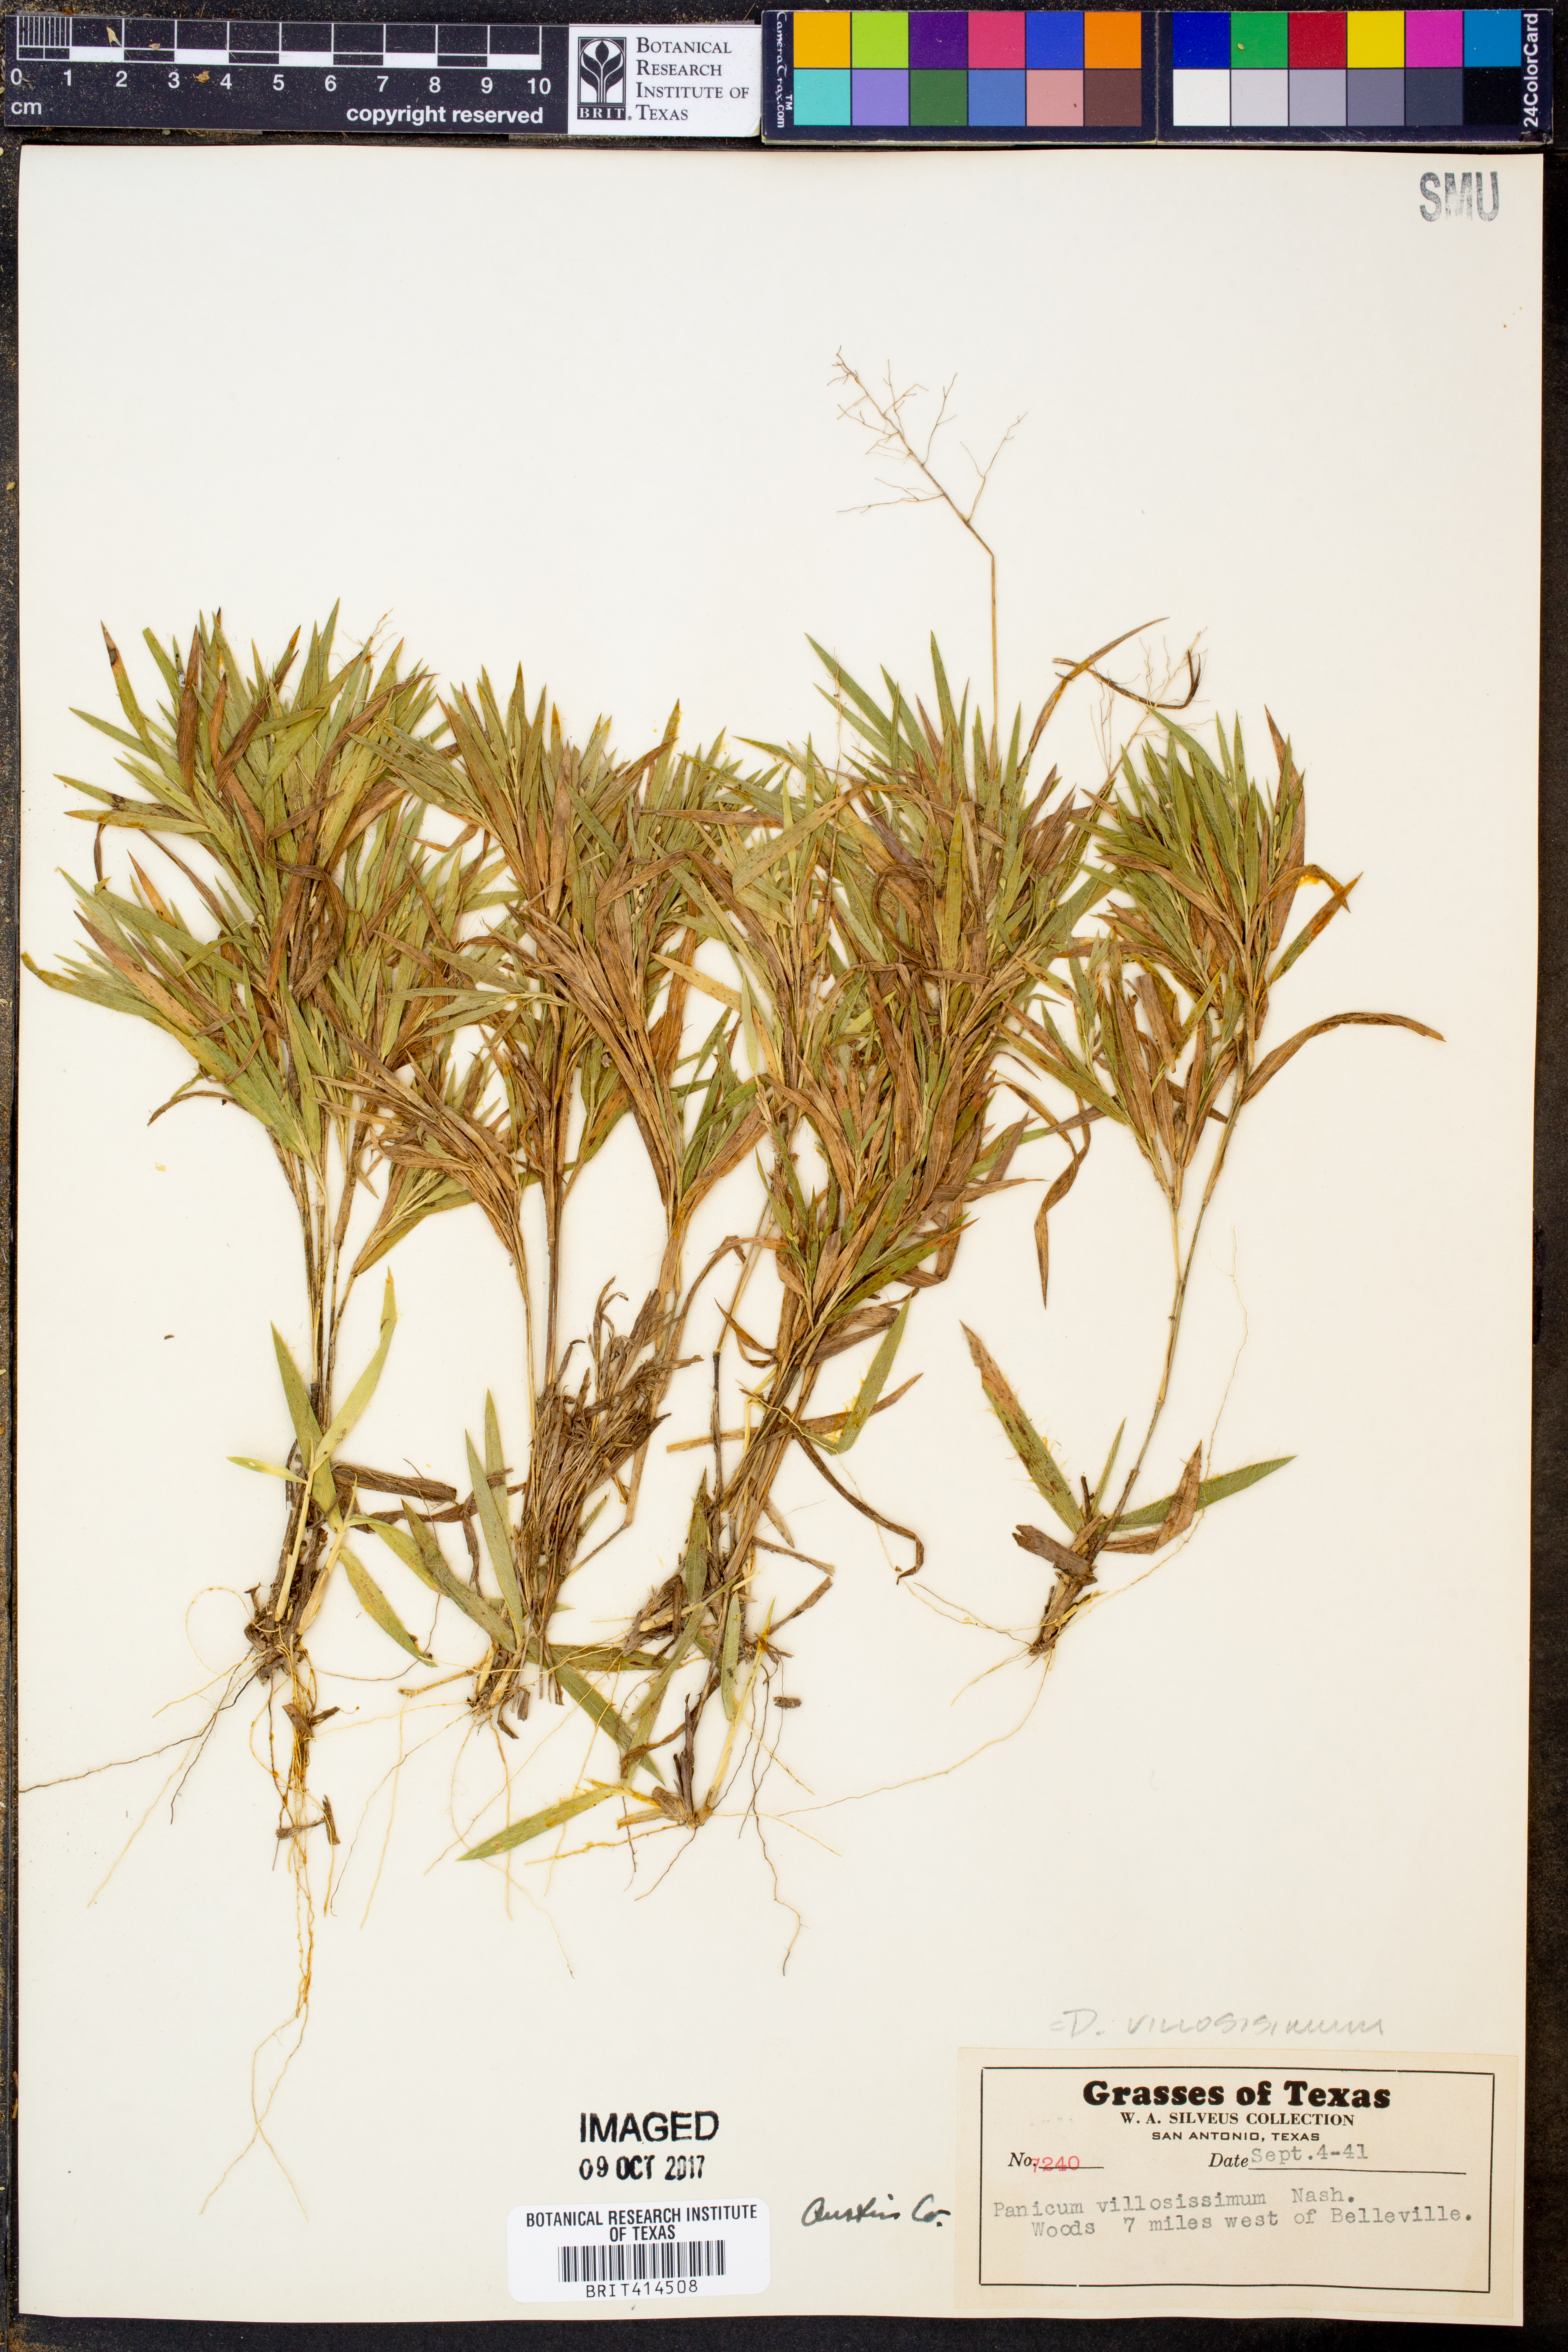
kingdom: Plantae
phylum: Tracheophyta
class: Liliopsida
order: Poales
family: Poaceae
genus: Dichanthelium
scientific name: Dichanthelium villosissimum
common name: White-haired panicgrass
